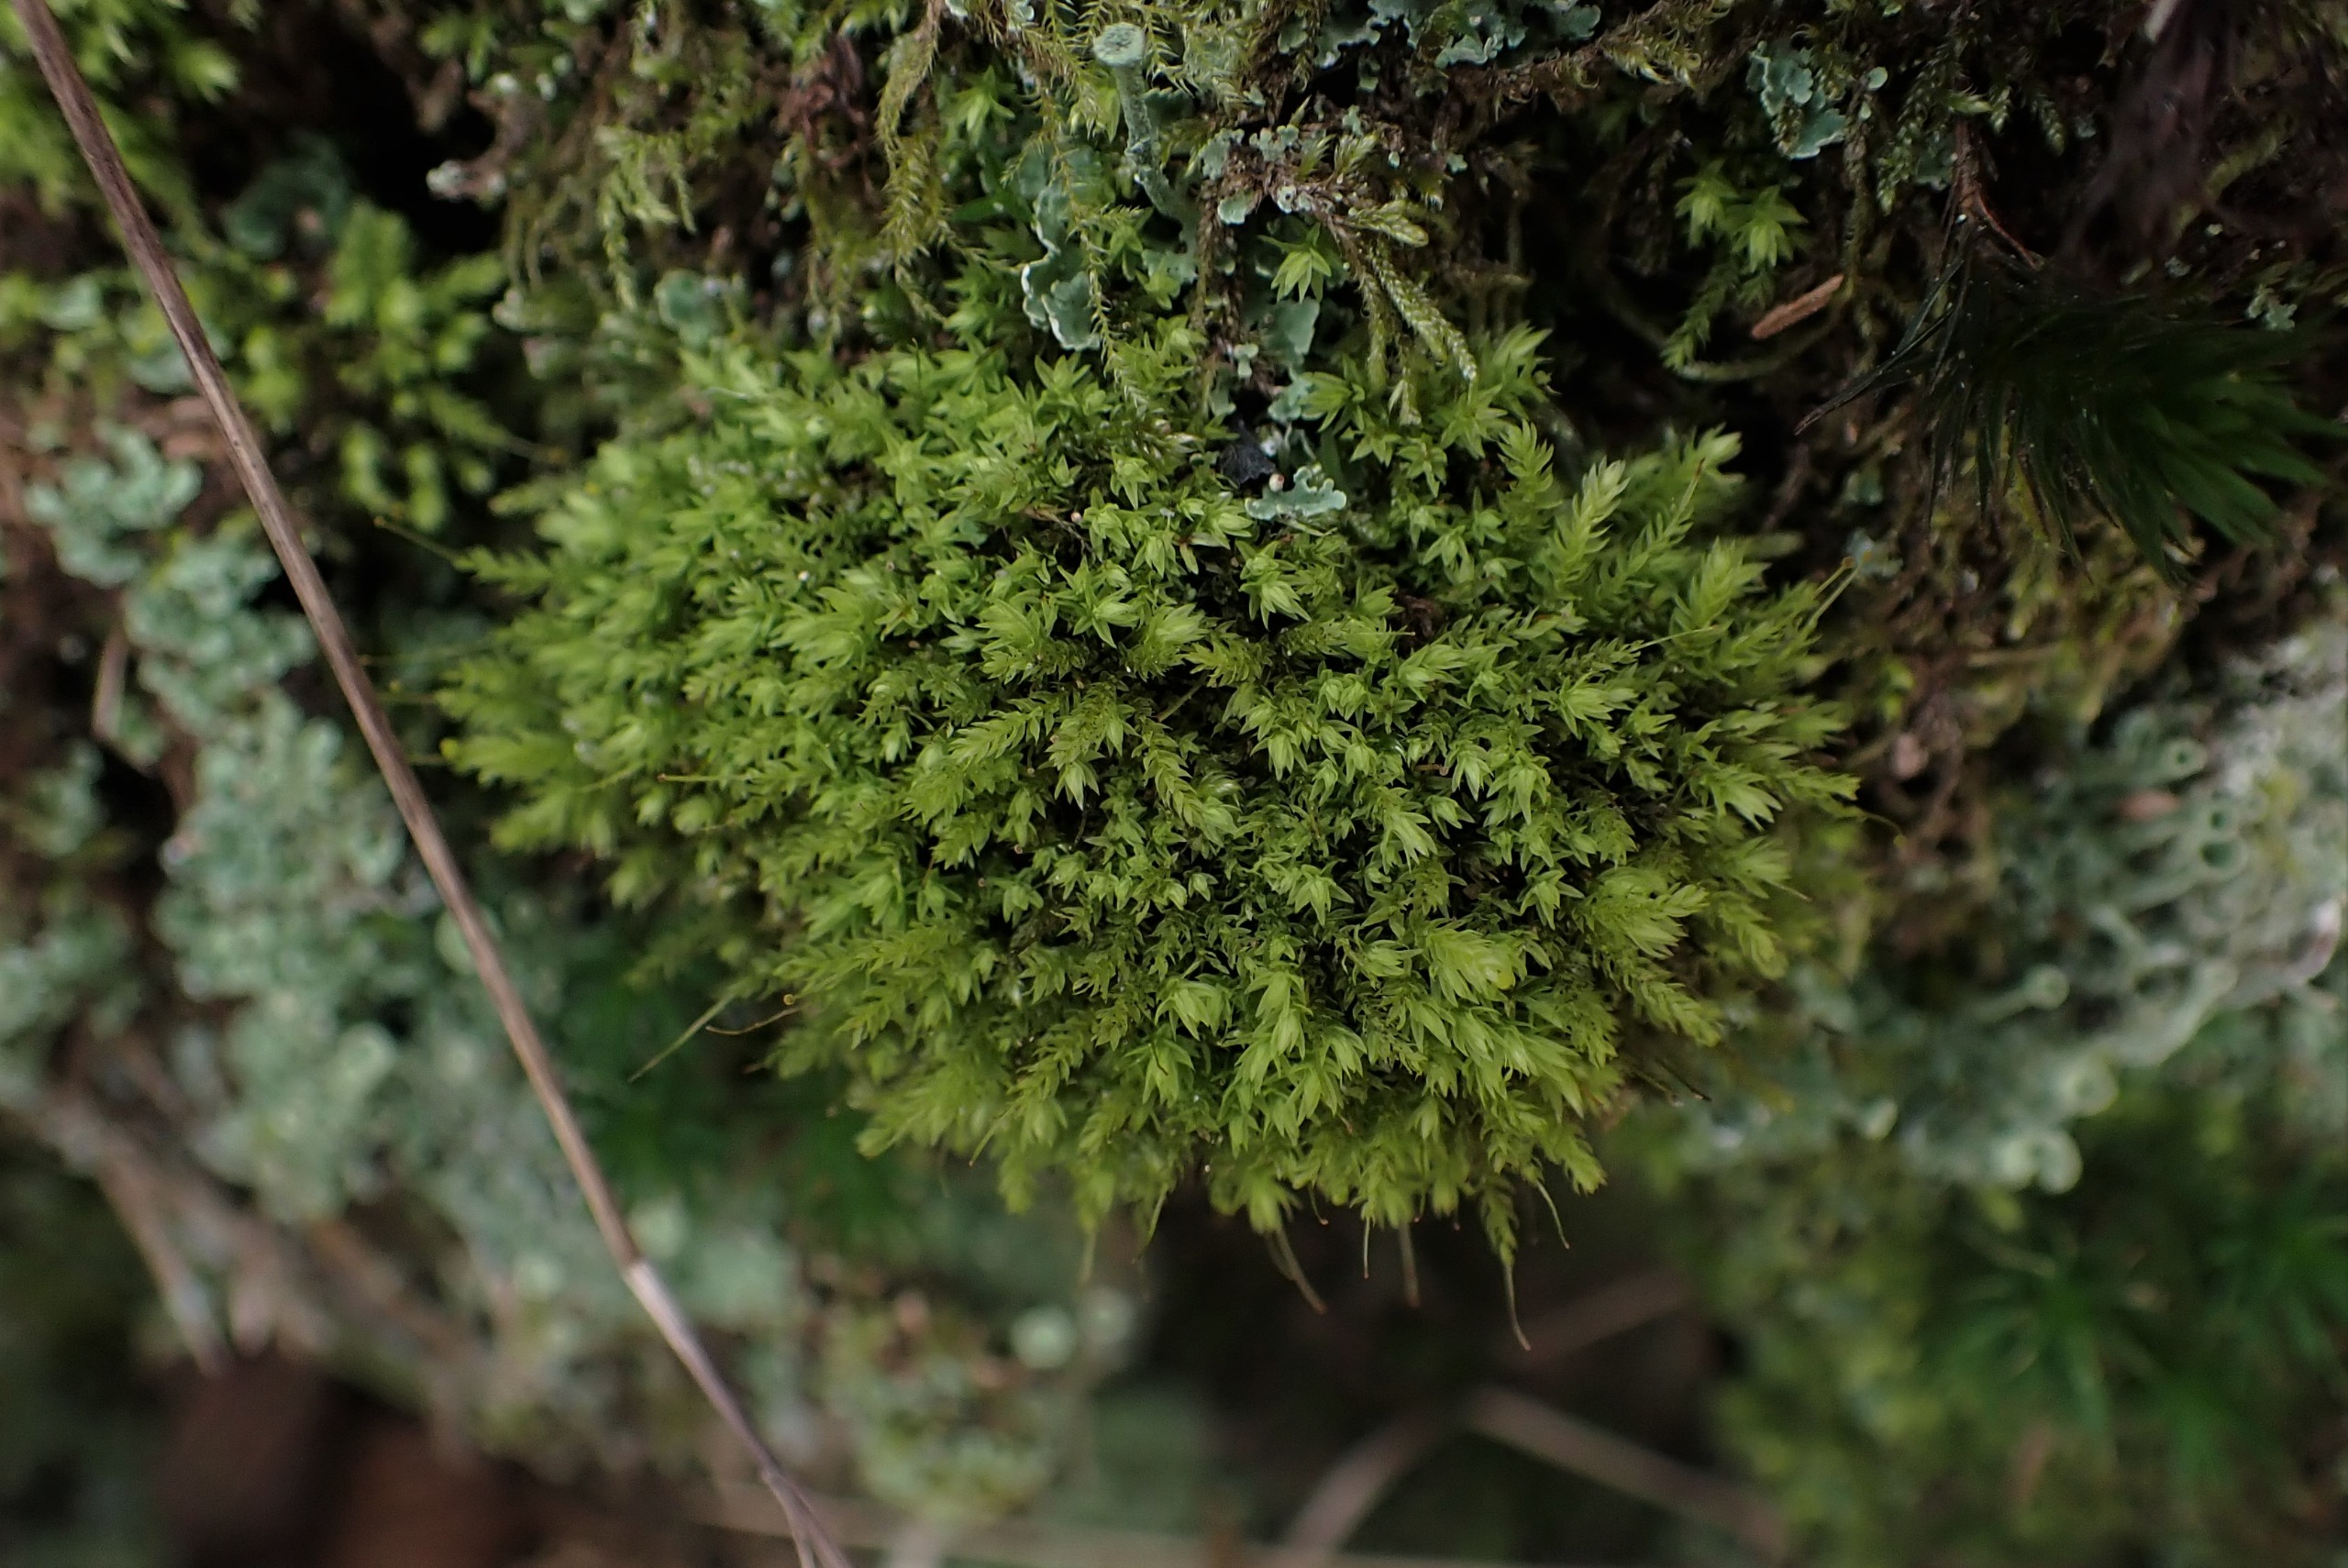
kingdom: Plantae
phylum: Bryophyta
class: Bryopsida
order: Aulacomniales
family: Aulacomniaceae
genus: Aulacomnium
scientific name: Aulacomnium androgynum
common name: Kugle-filtmos
